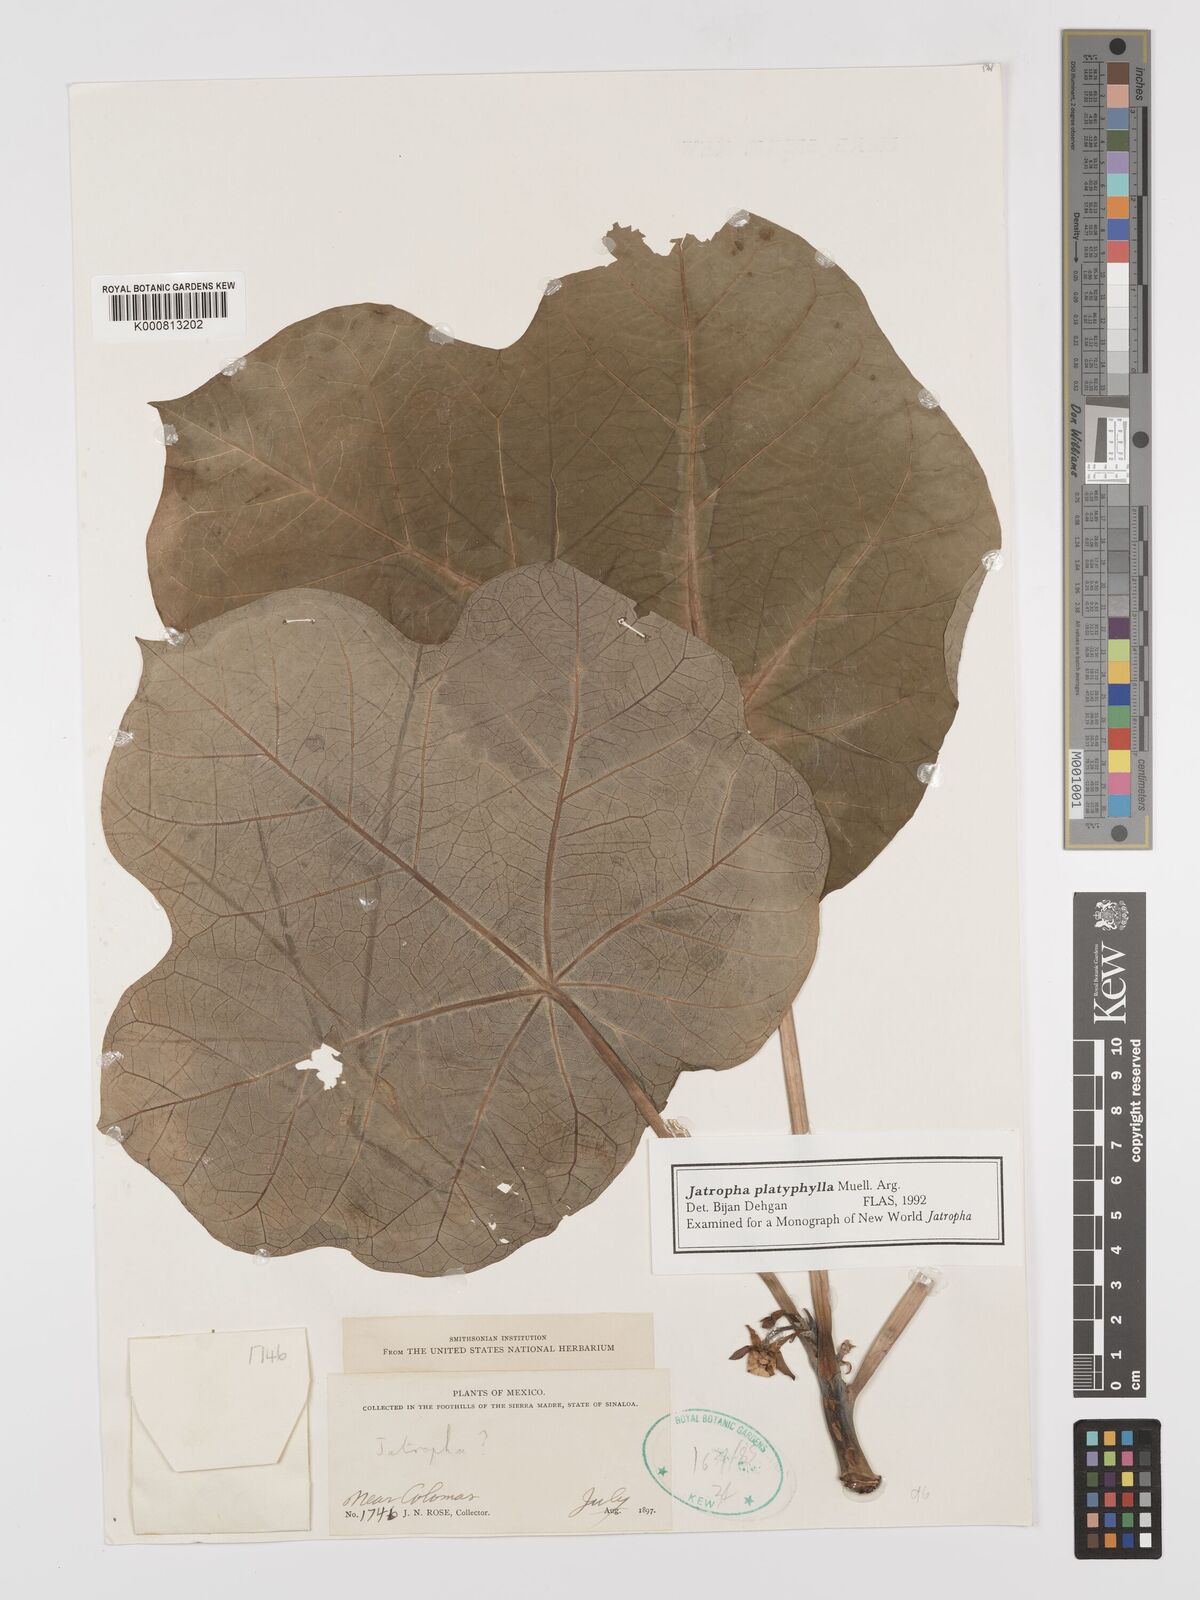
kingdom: Plantae
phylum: Tracheophyta
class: Magnoliopsida
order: Malpighiales
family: Euphorbiaceae
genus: Jatropha
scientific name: Jatropha
